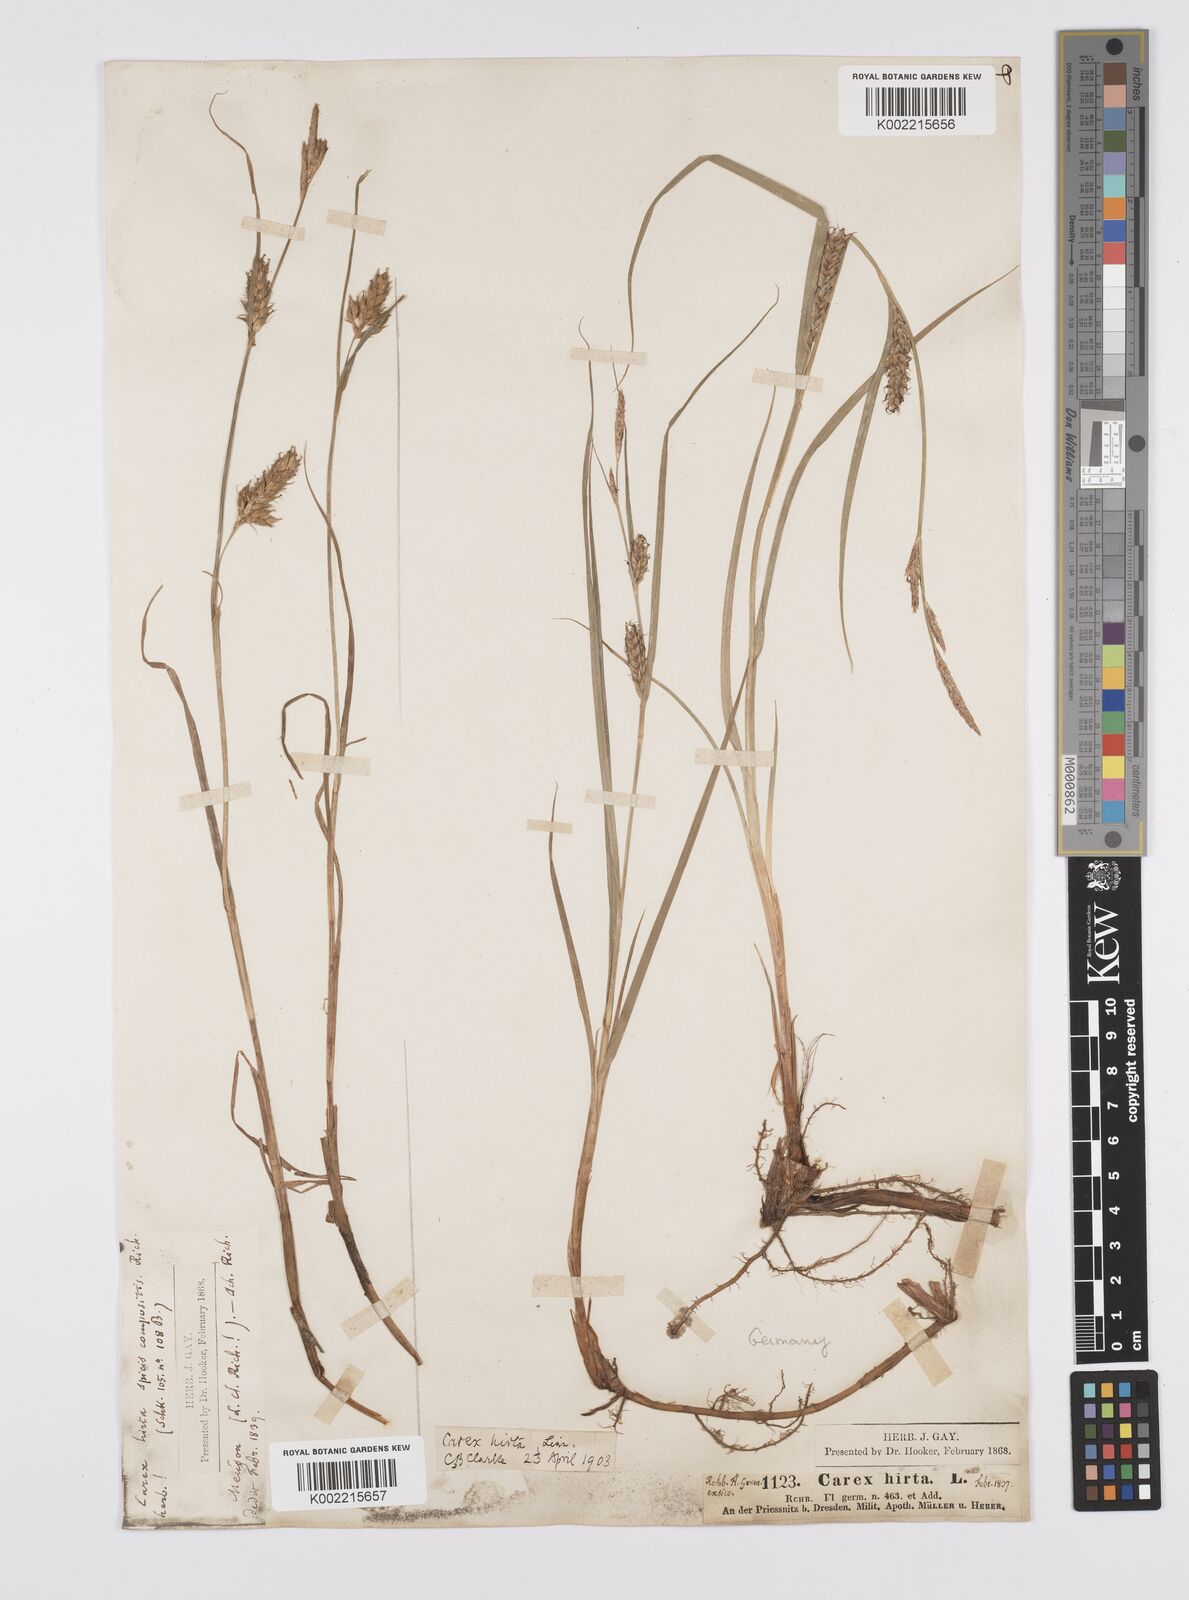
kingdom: Plantae
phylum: Tracheophyta
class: Liliopsida
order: Poales
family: Cyperaceae
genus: Carex
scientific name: Carex hirta
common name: Hairy sedge
